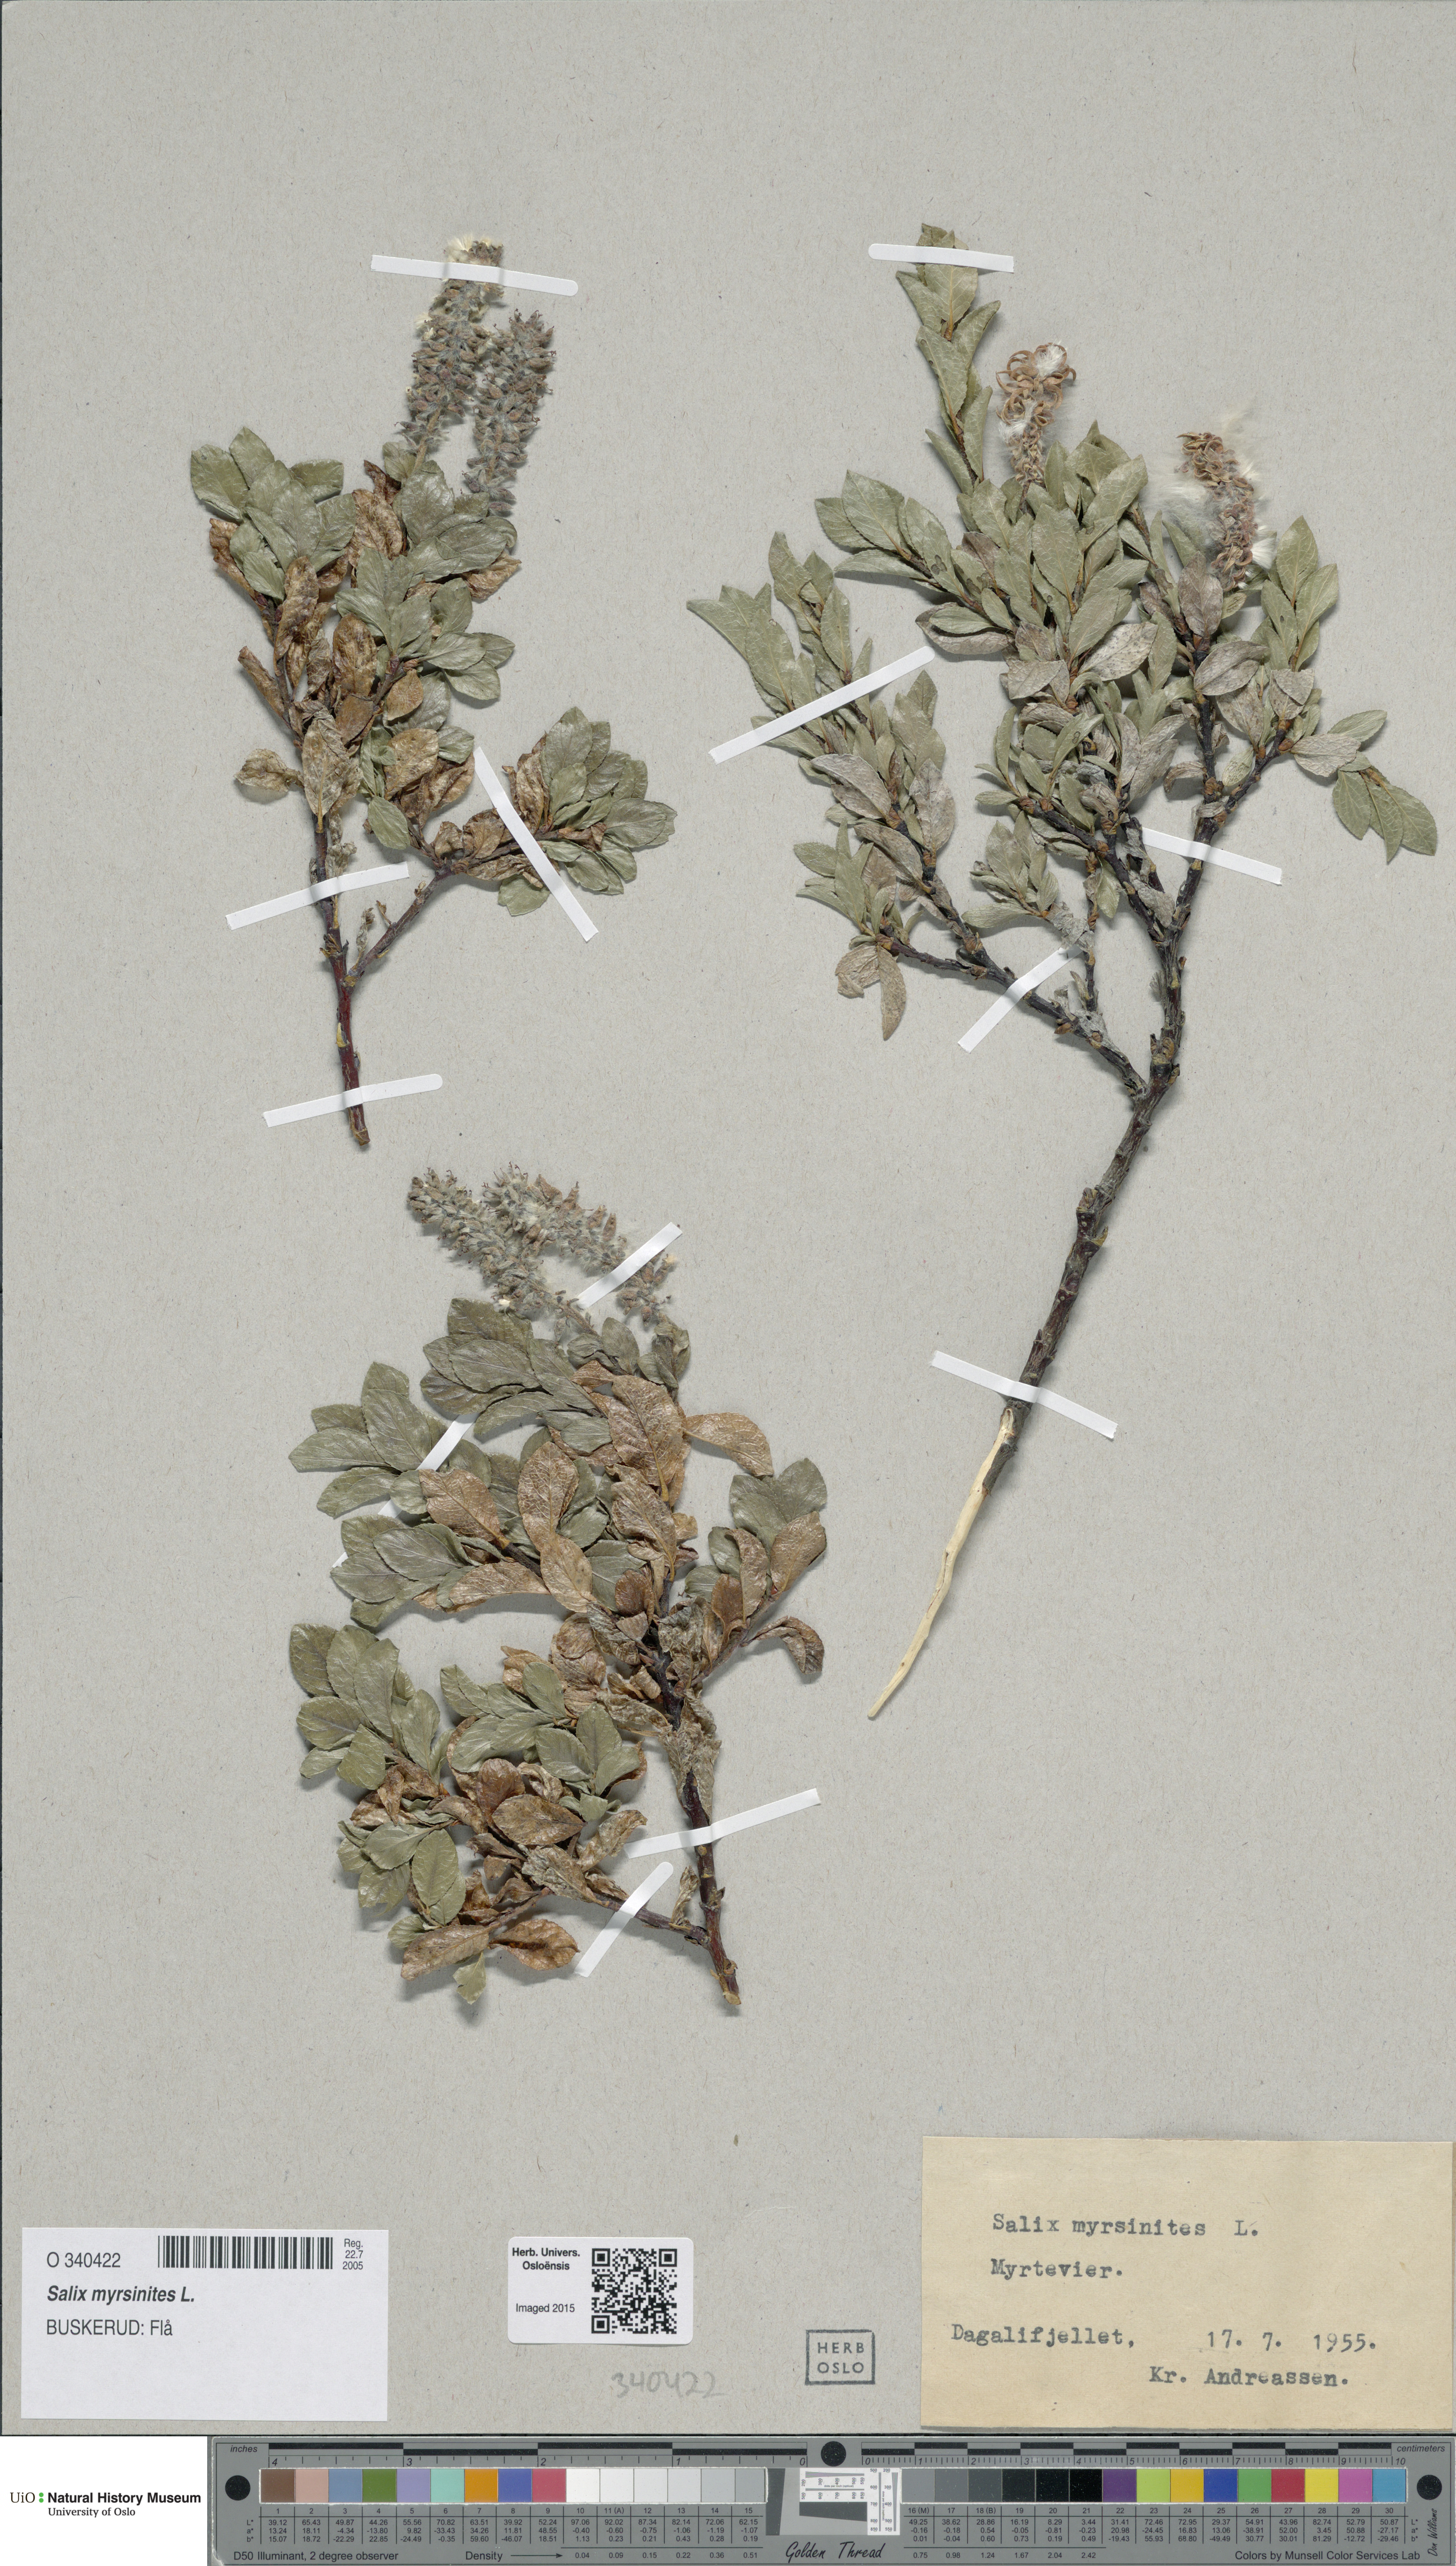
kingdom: Plantae
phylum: Tracheophyta
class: Magnoliopsida
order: Malpighiales
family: Salicaceae
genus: Salix
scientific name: Salix myrsinites
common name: Myrtle willow
